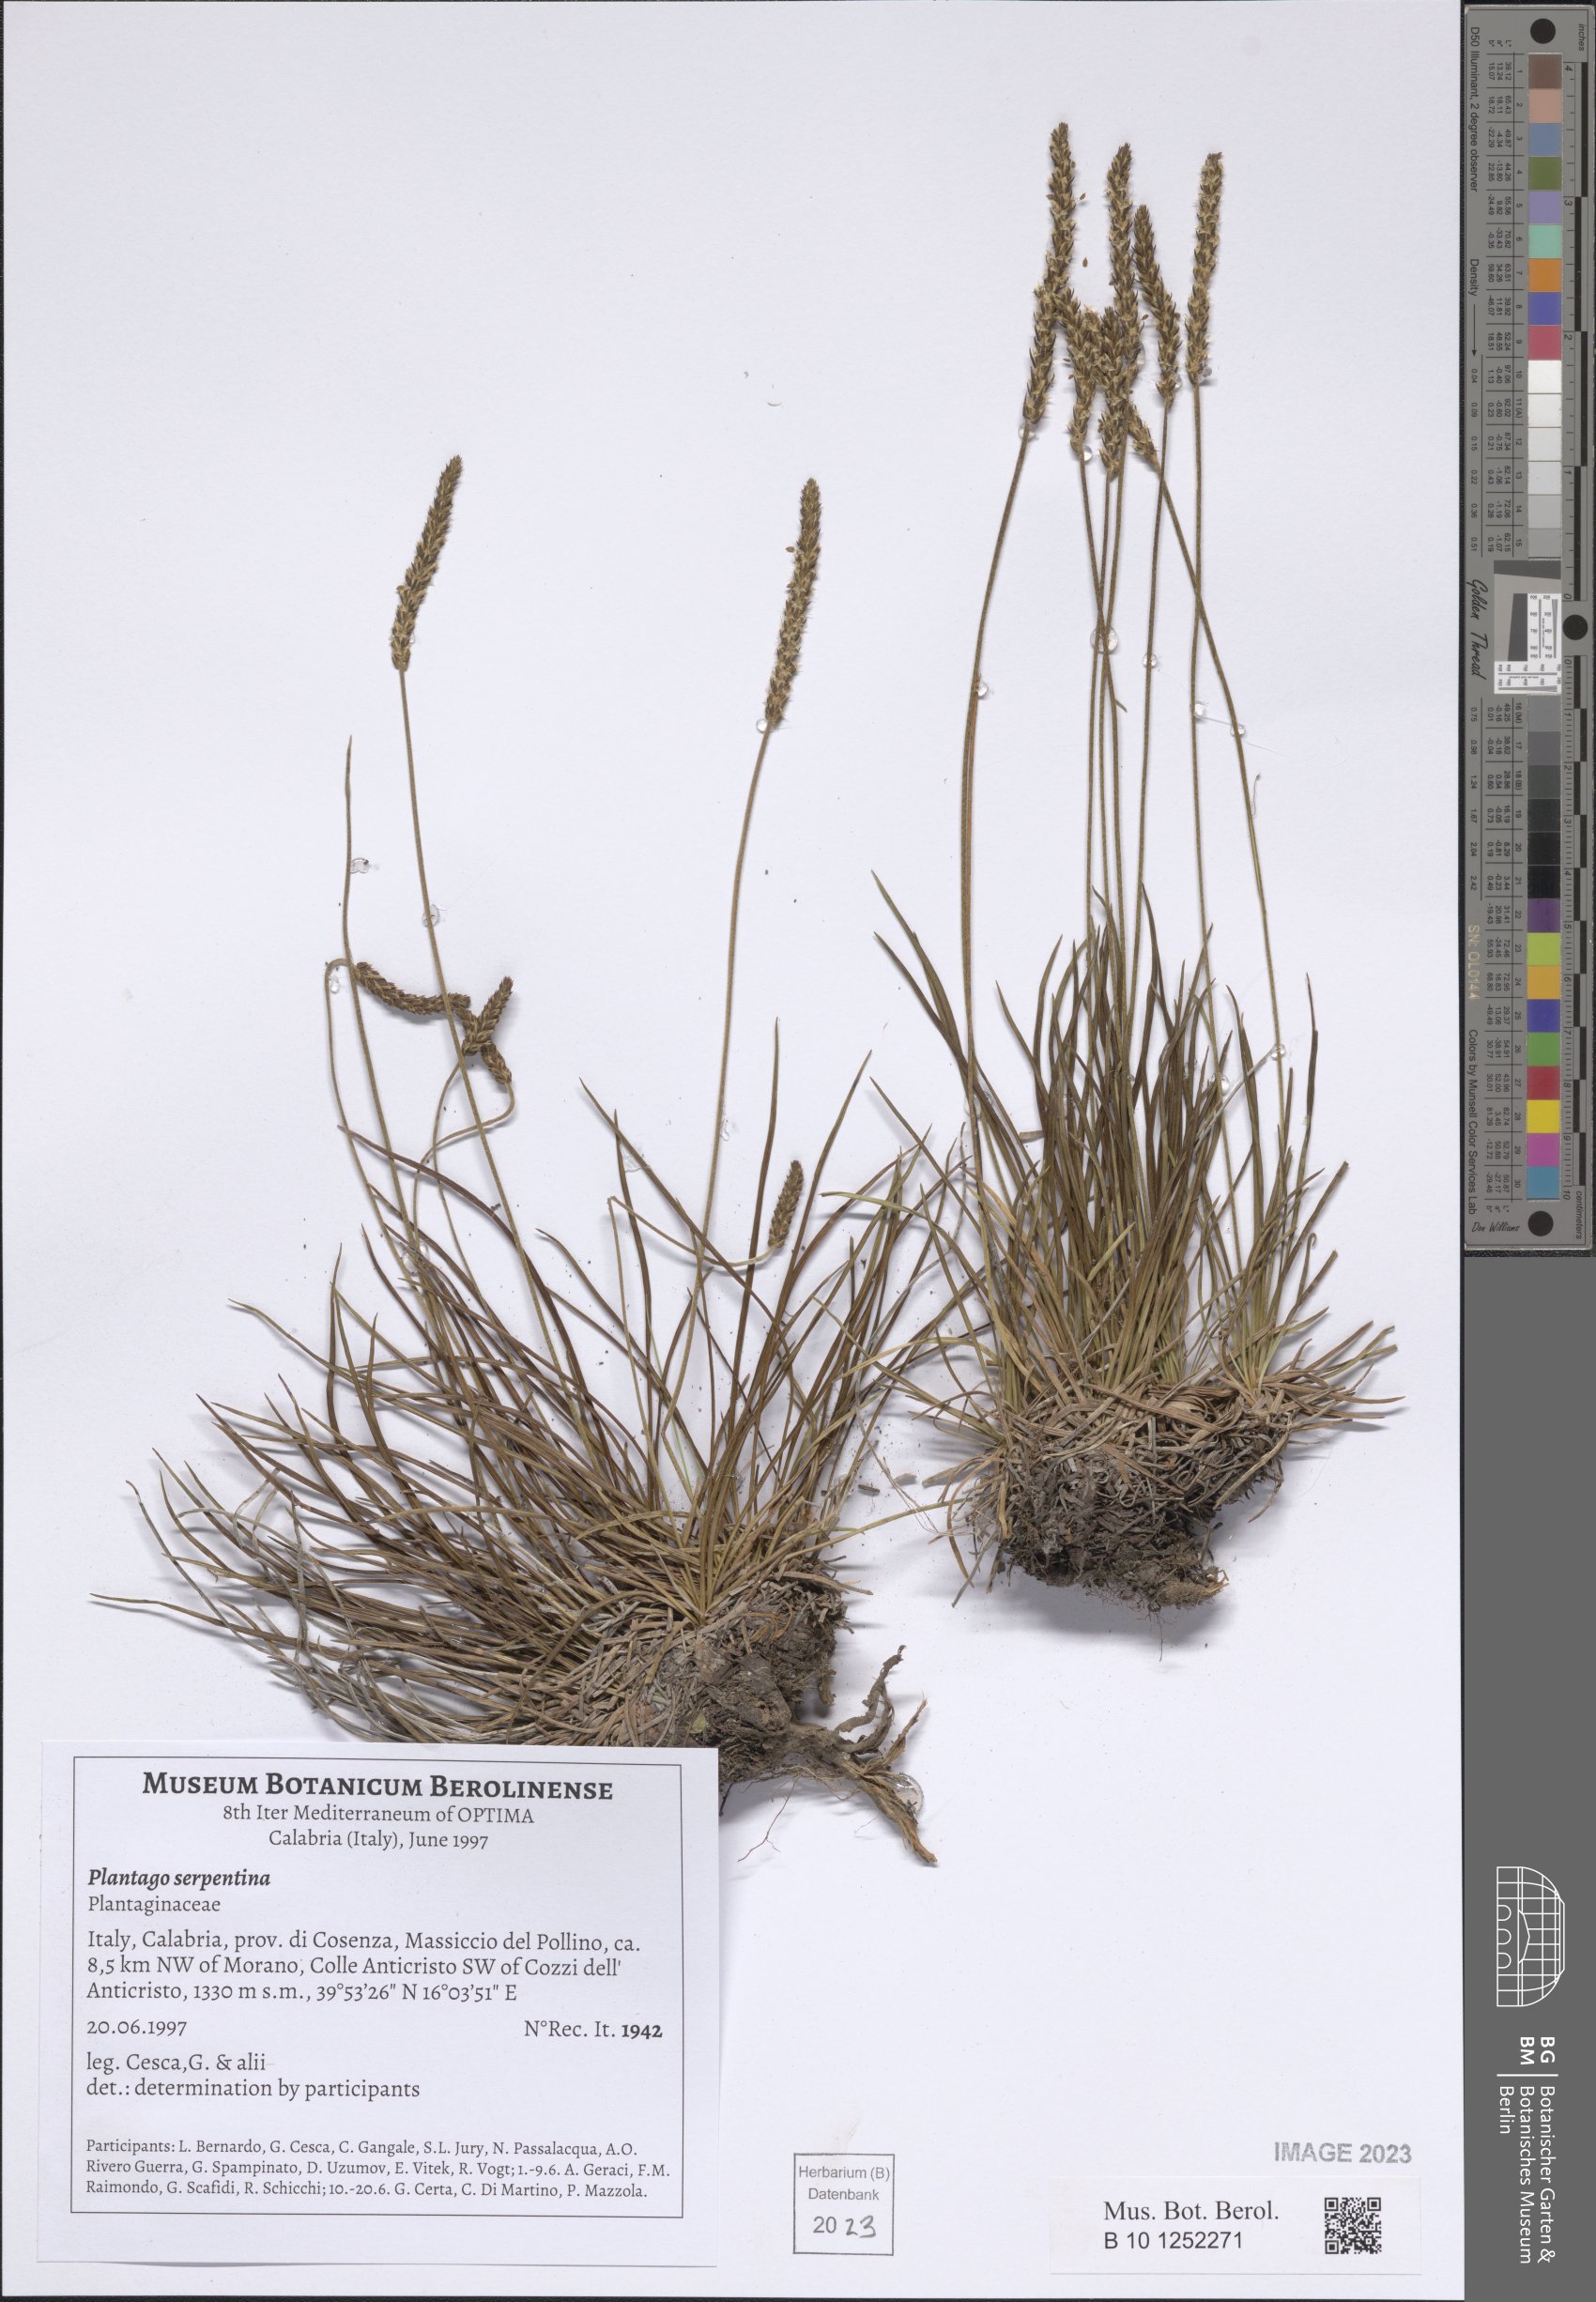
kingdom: Plantae
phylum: Tracheophyta
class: Magnoliopsida
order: Lamiales
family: Plantaginaceae
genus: Plantago
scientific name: Plantago strictissima
